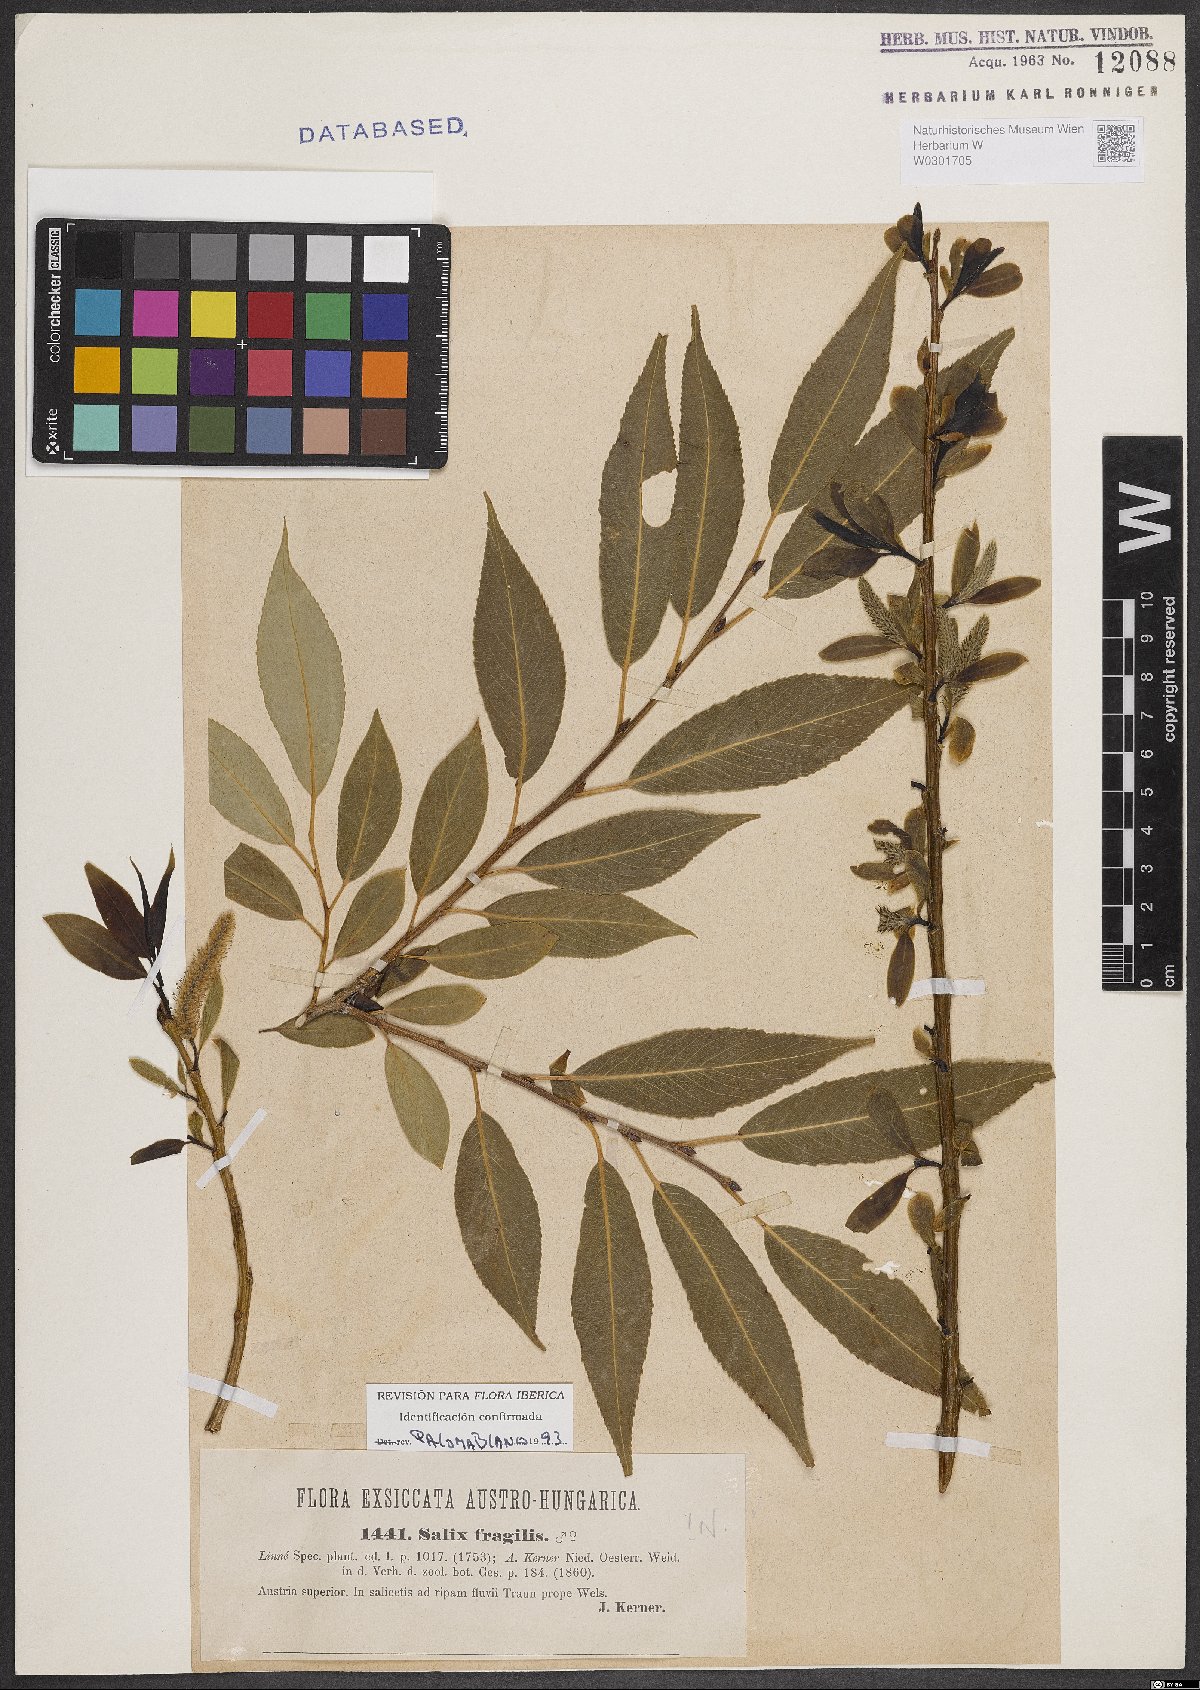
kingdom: Plantae
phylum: Tracheophyta
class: Magnoliopsida
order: Malpighiales
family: Salicaceae
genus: Salix
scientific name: Salix fragilis
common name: Crack willow
